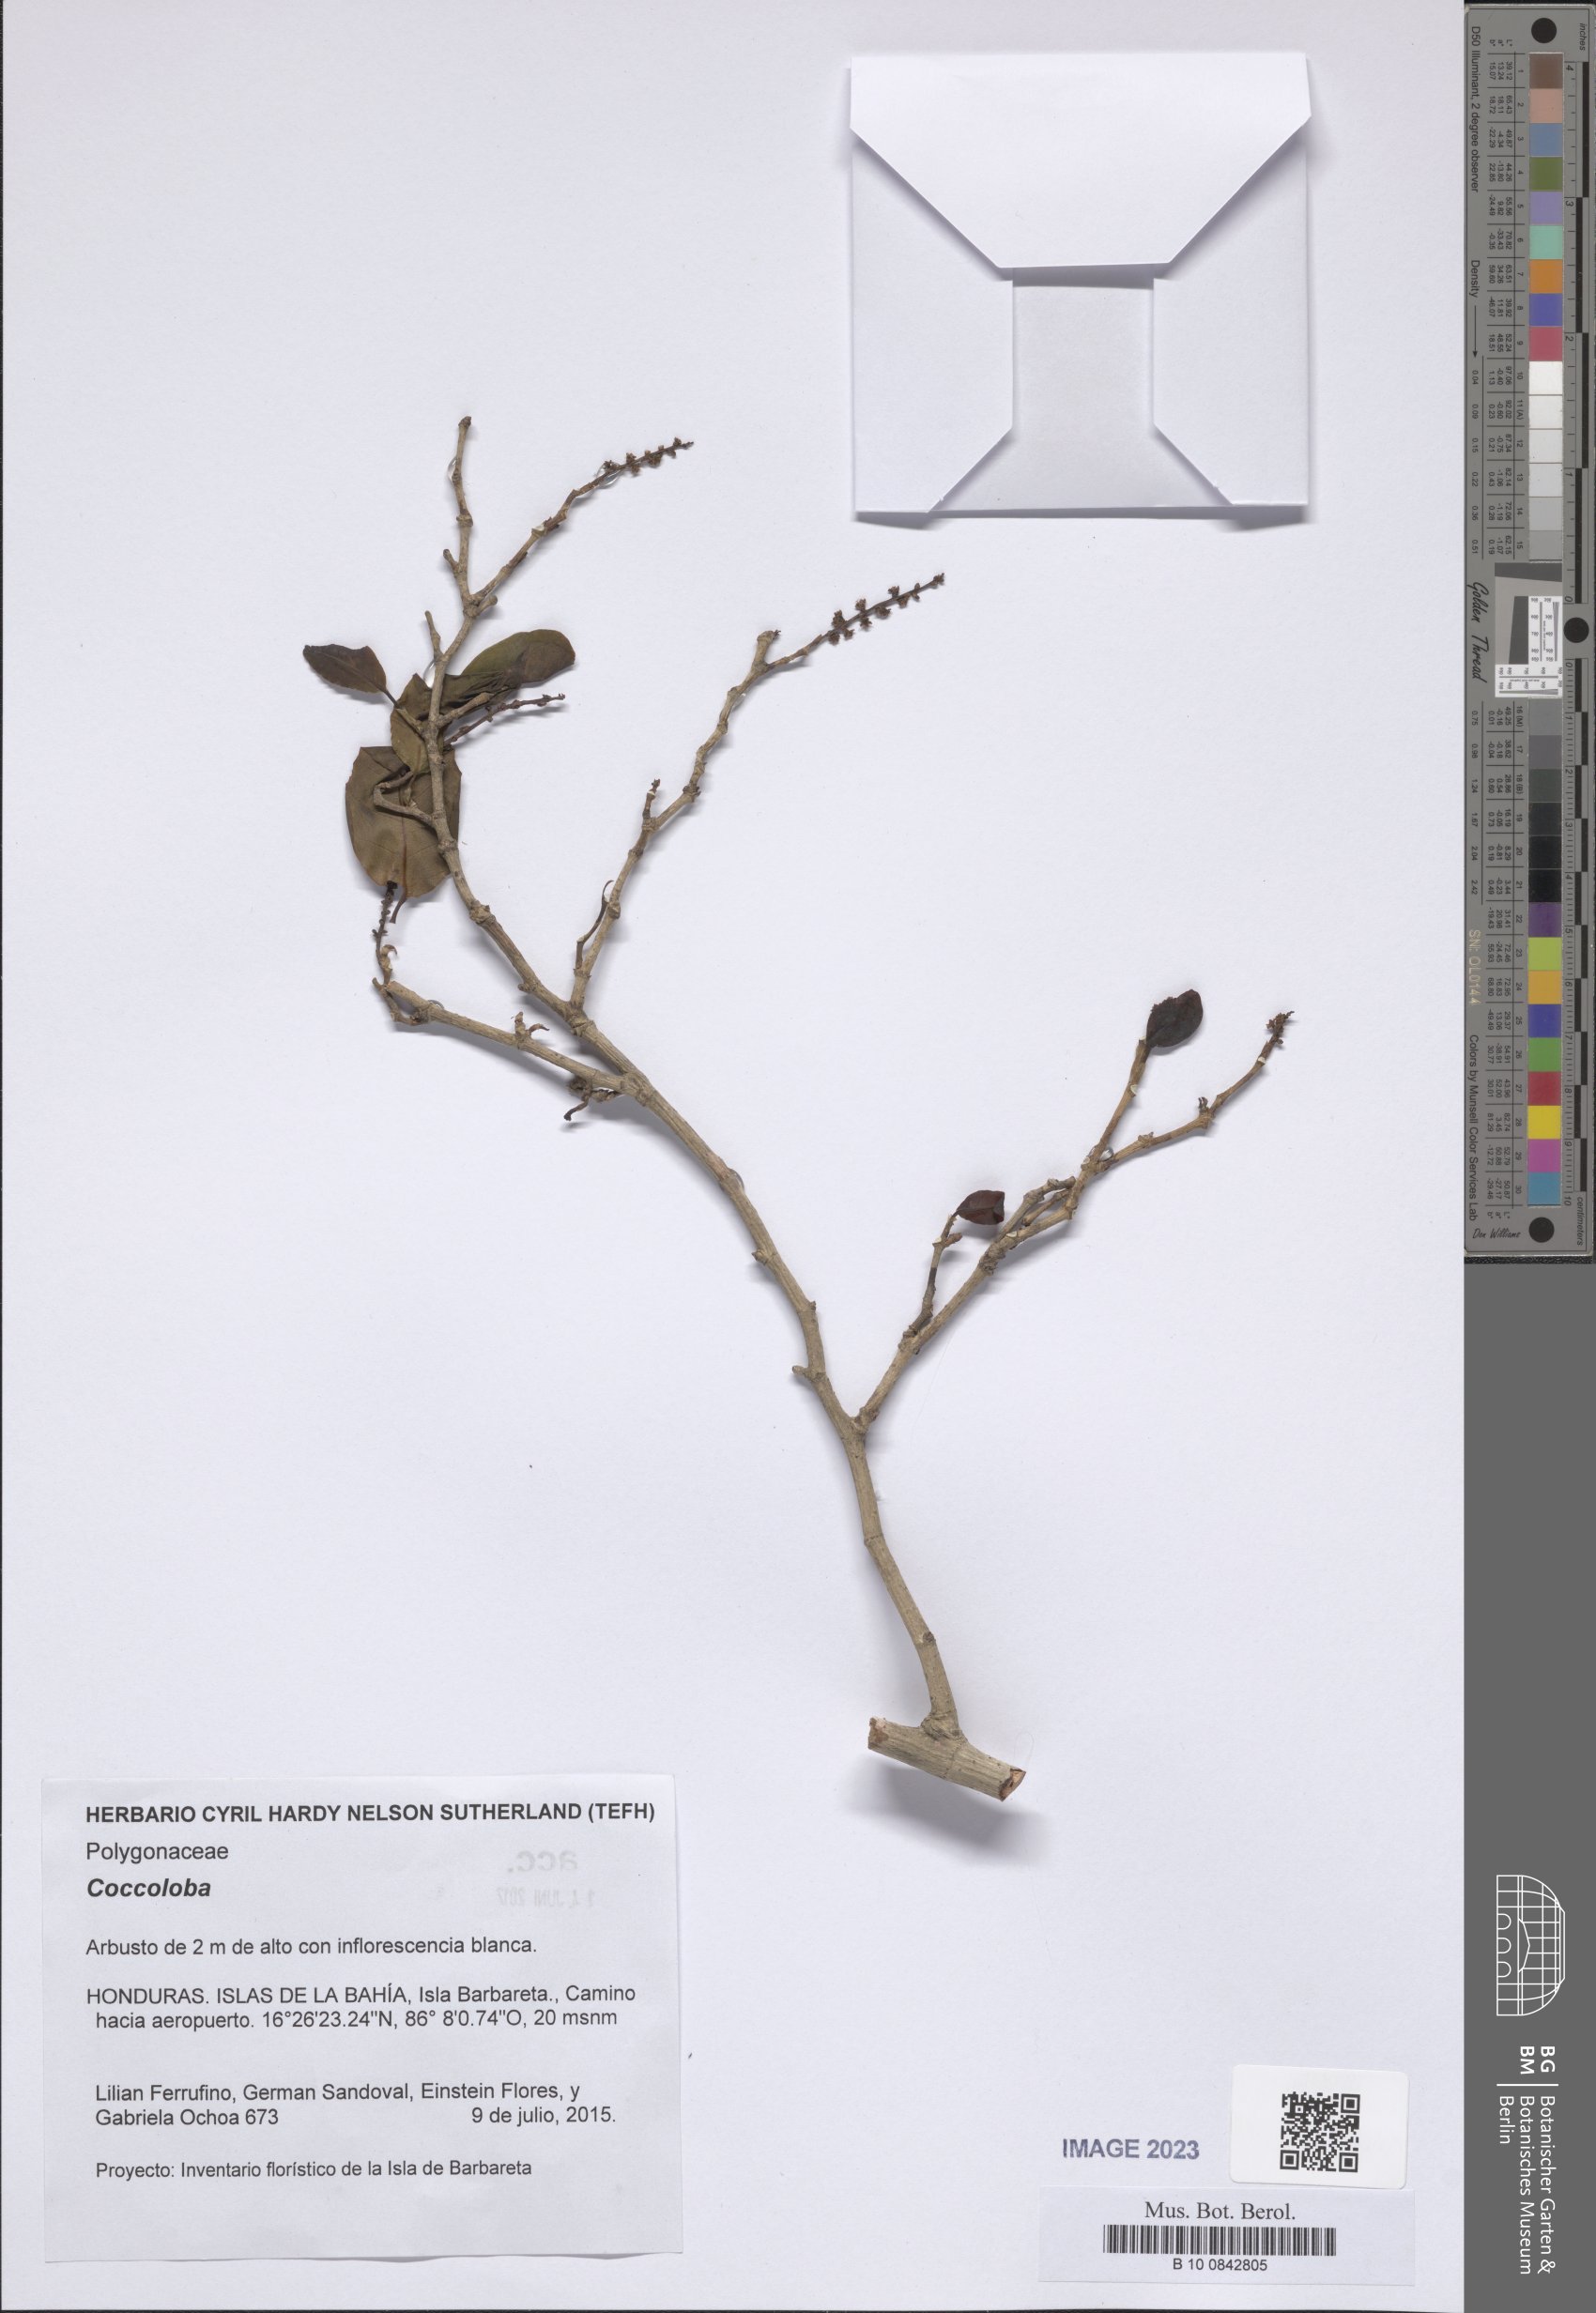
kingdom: Plantae
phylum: Tracheophyta
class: Magnoliopsida
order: Caryophyllales
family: Polygonaceae
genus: Coccoloba
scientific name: Coccoloba
